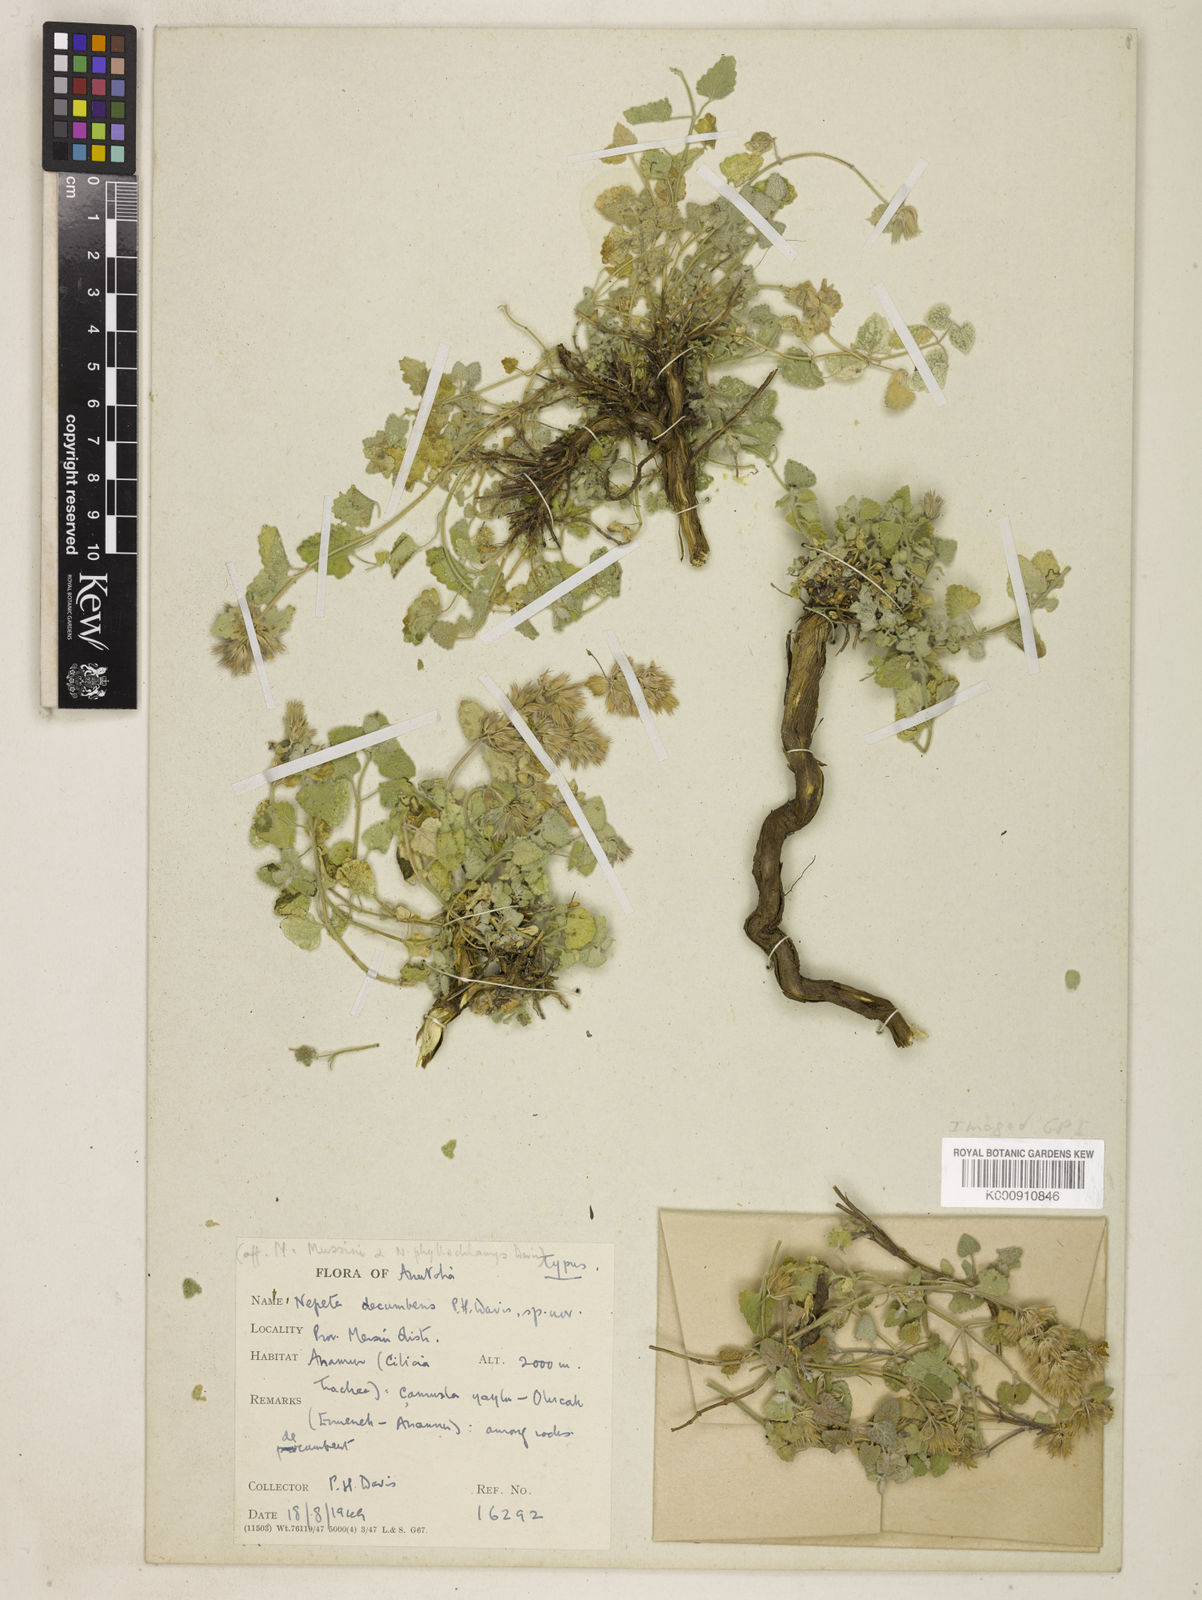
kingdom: Plantae
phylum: Tracheophyta
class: Magnoliopsida
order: Lamiales
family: Lamiaceae
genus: Nepeta
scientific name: Nepeta isaurica
